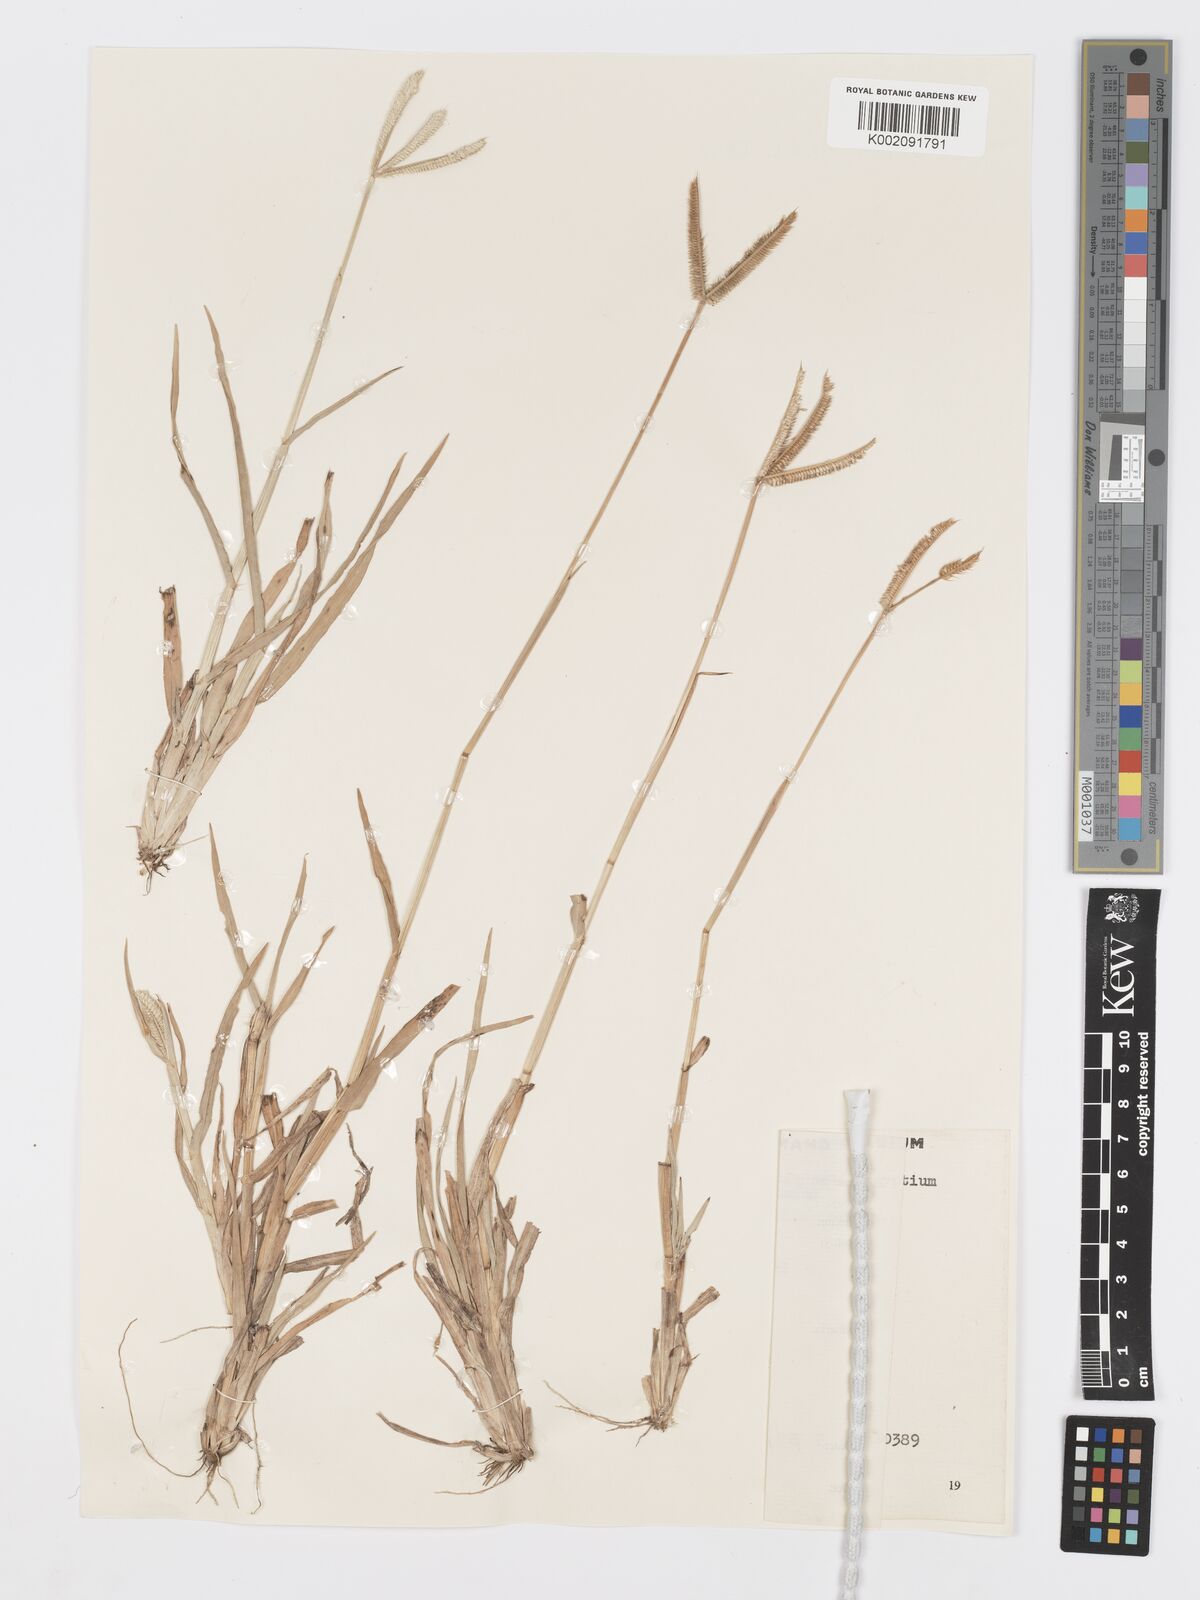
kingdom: Plantae
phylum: Tracheophyta
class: Liliopsida
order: Poales
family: Poaceae
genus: Dactyloctenium
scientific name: Dactyloctenium aegyptium
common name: Egyptian grass
